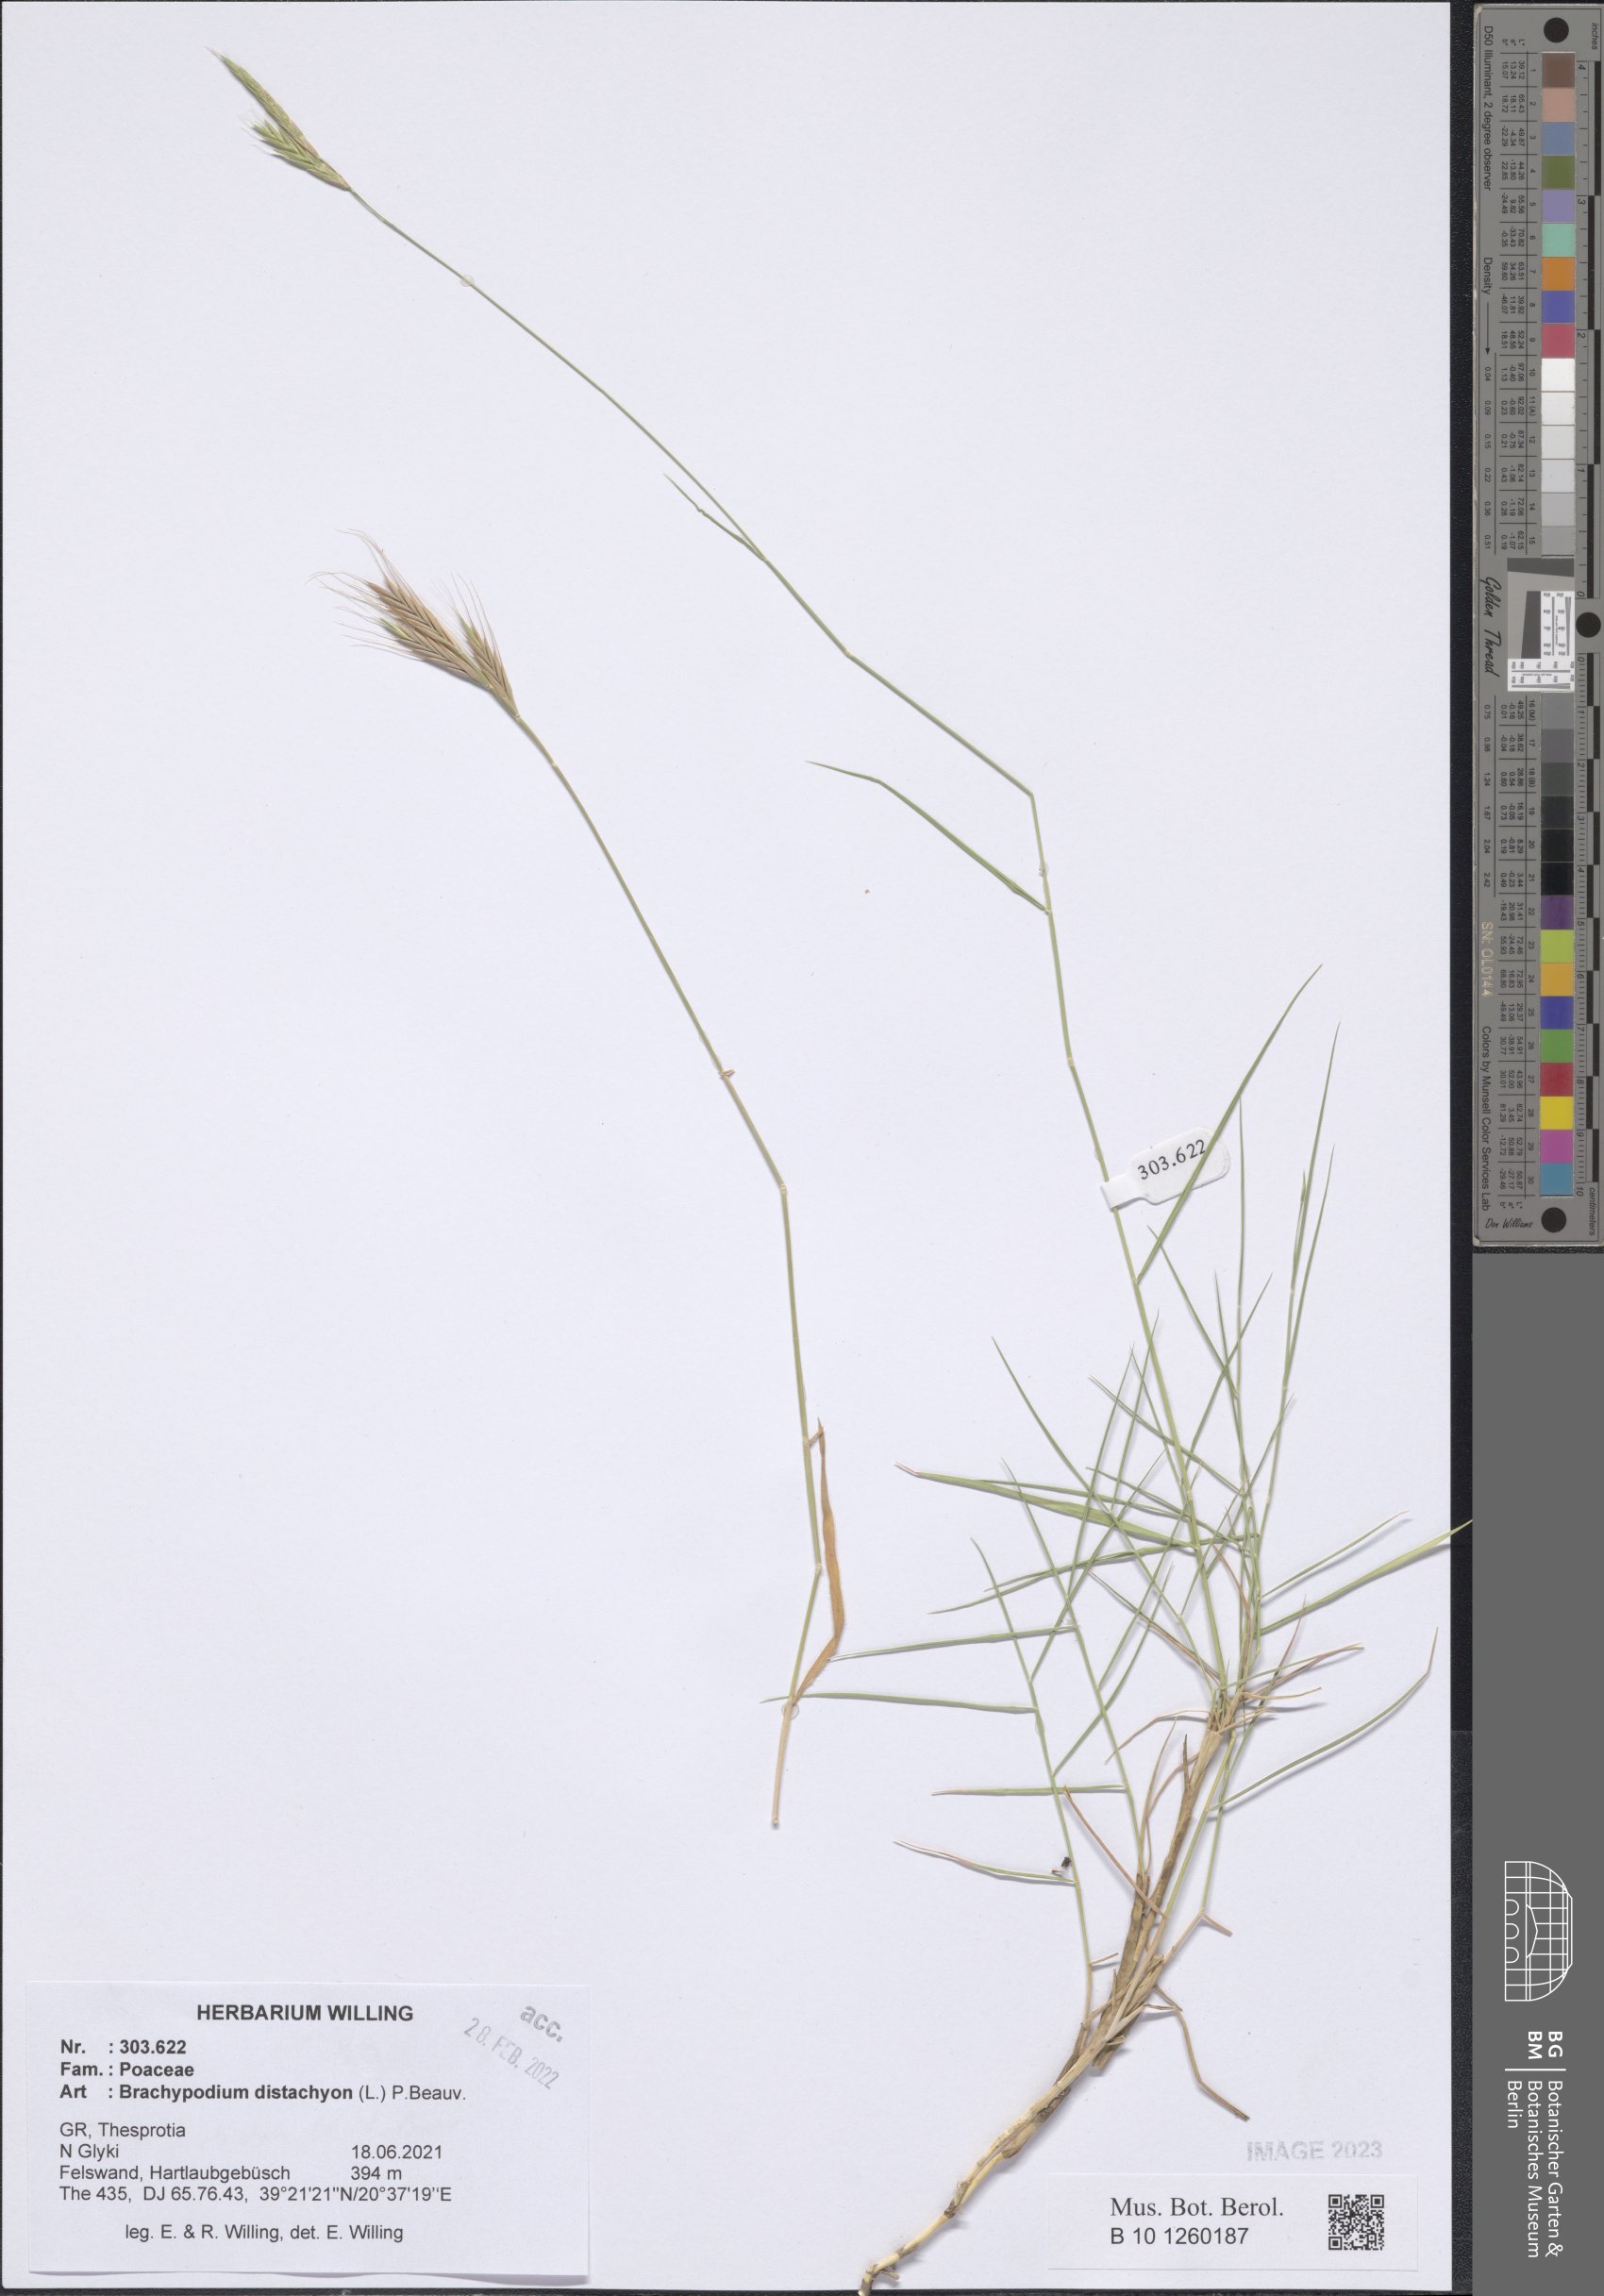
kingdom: Plantae
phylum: Tracheophyta
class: Liliopsida
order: Poales
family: Poaceae
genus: Brachypodium
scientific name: Brachypodium distachyon
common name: Stiff brome
